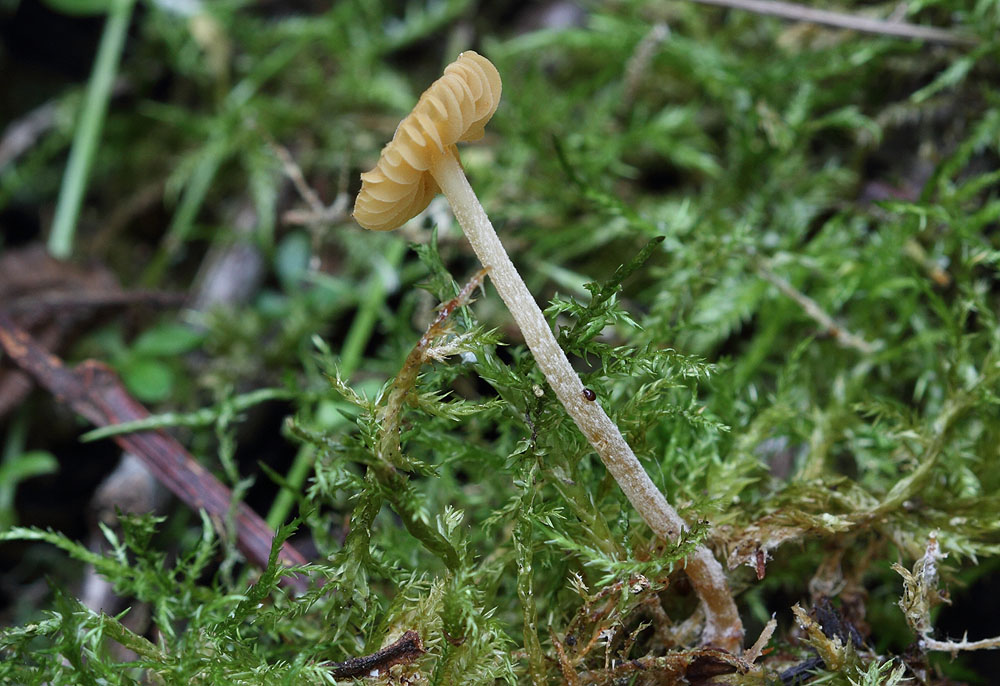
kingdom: Fungi
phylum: Basidiomycota
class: Agaricomycetes
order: Agaricales
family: Hymenogastraceae
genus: Galerina
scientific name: Galerina clavata
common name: kær-hjelmhat
